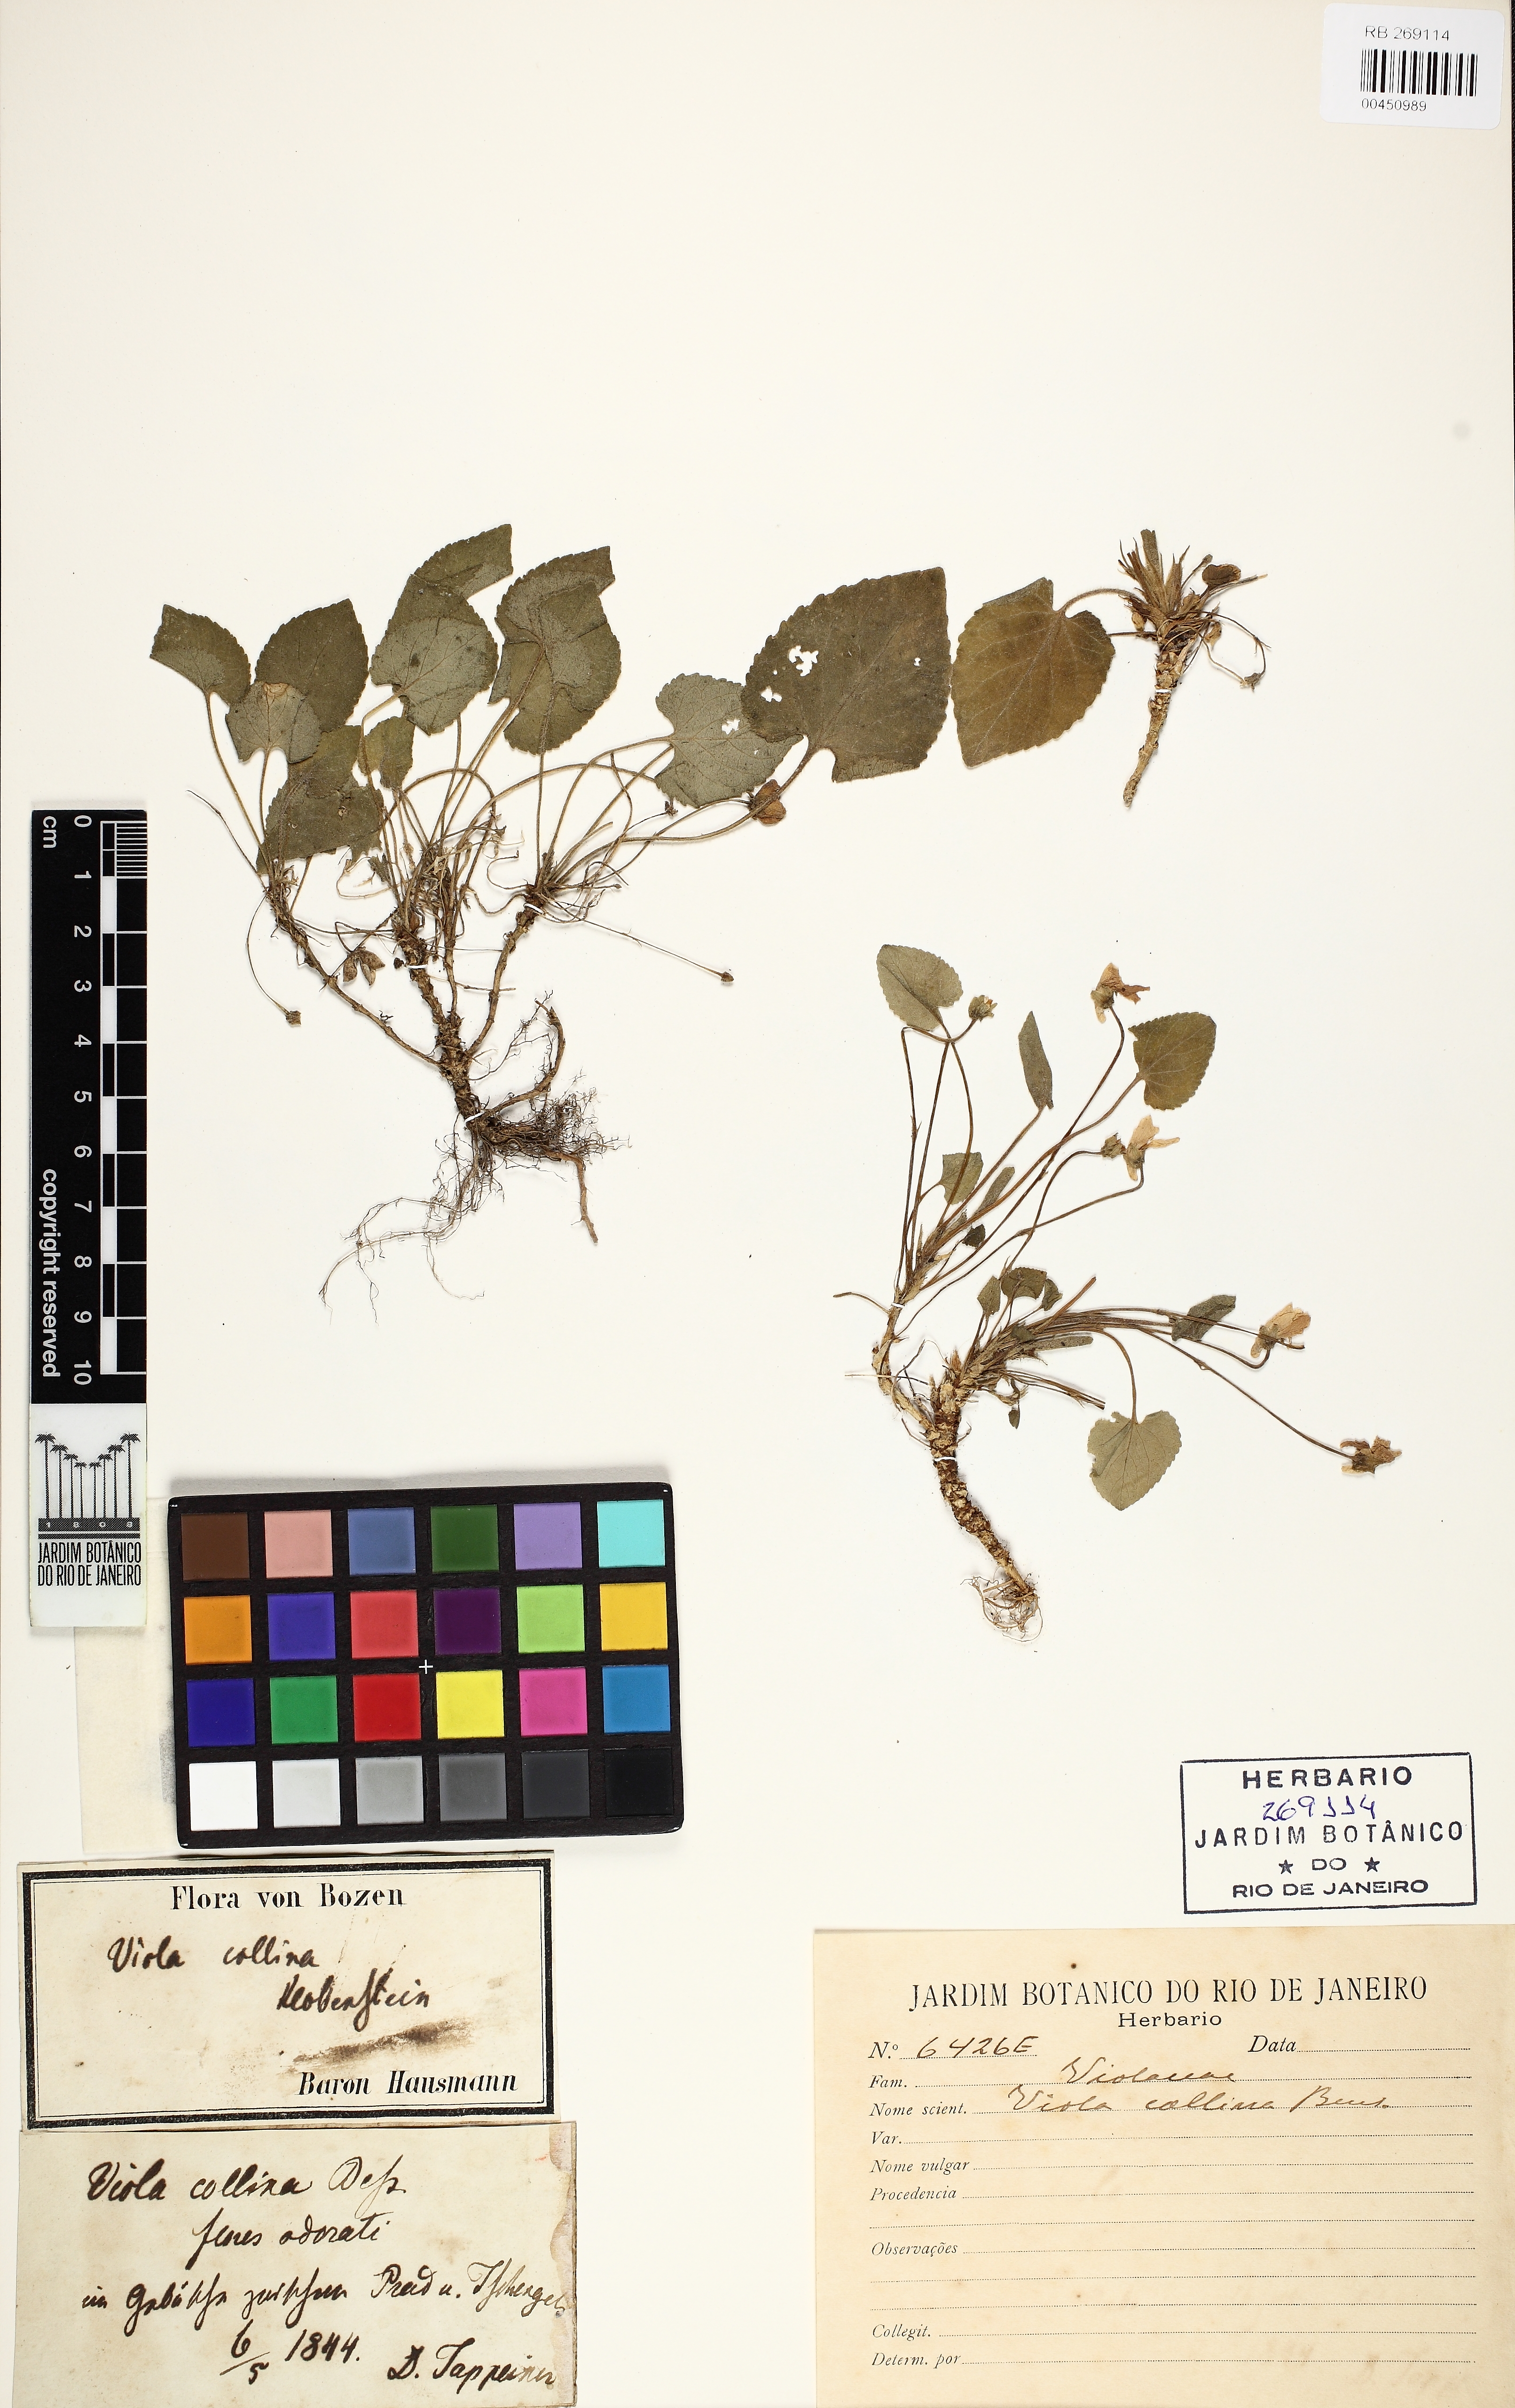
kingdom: Plantae
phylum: Tracheophyta
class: Magnoliopsida
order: Malpighiales
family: Violaceae
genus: Viola
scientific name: Viola collina
